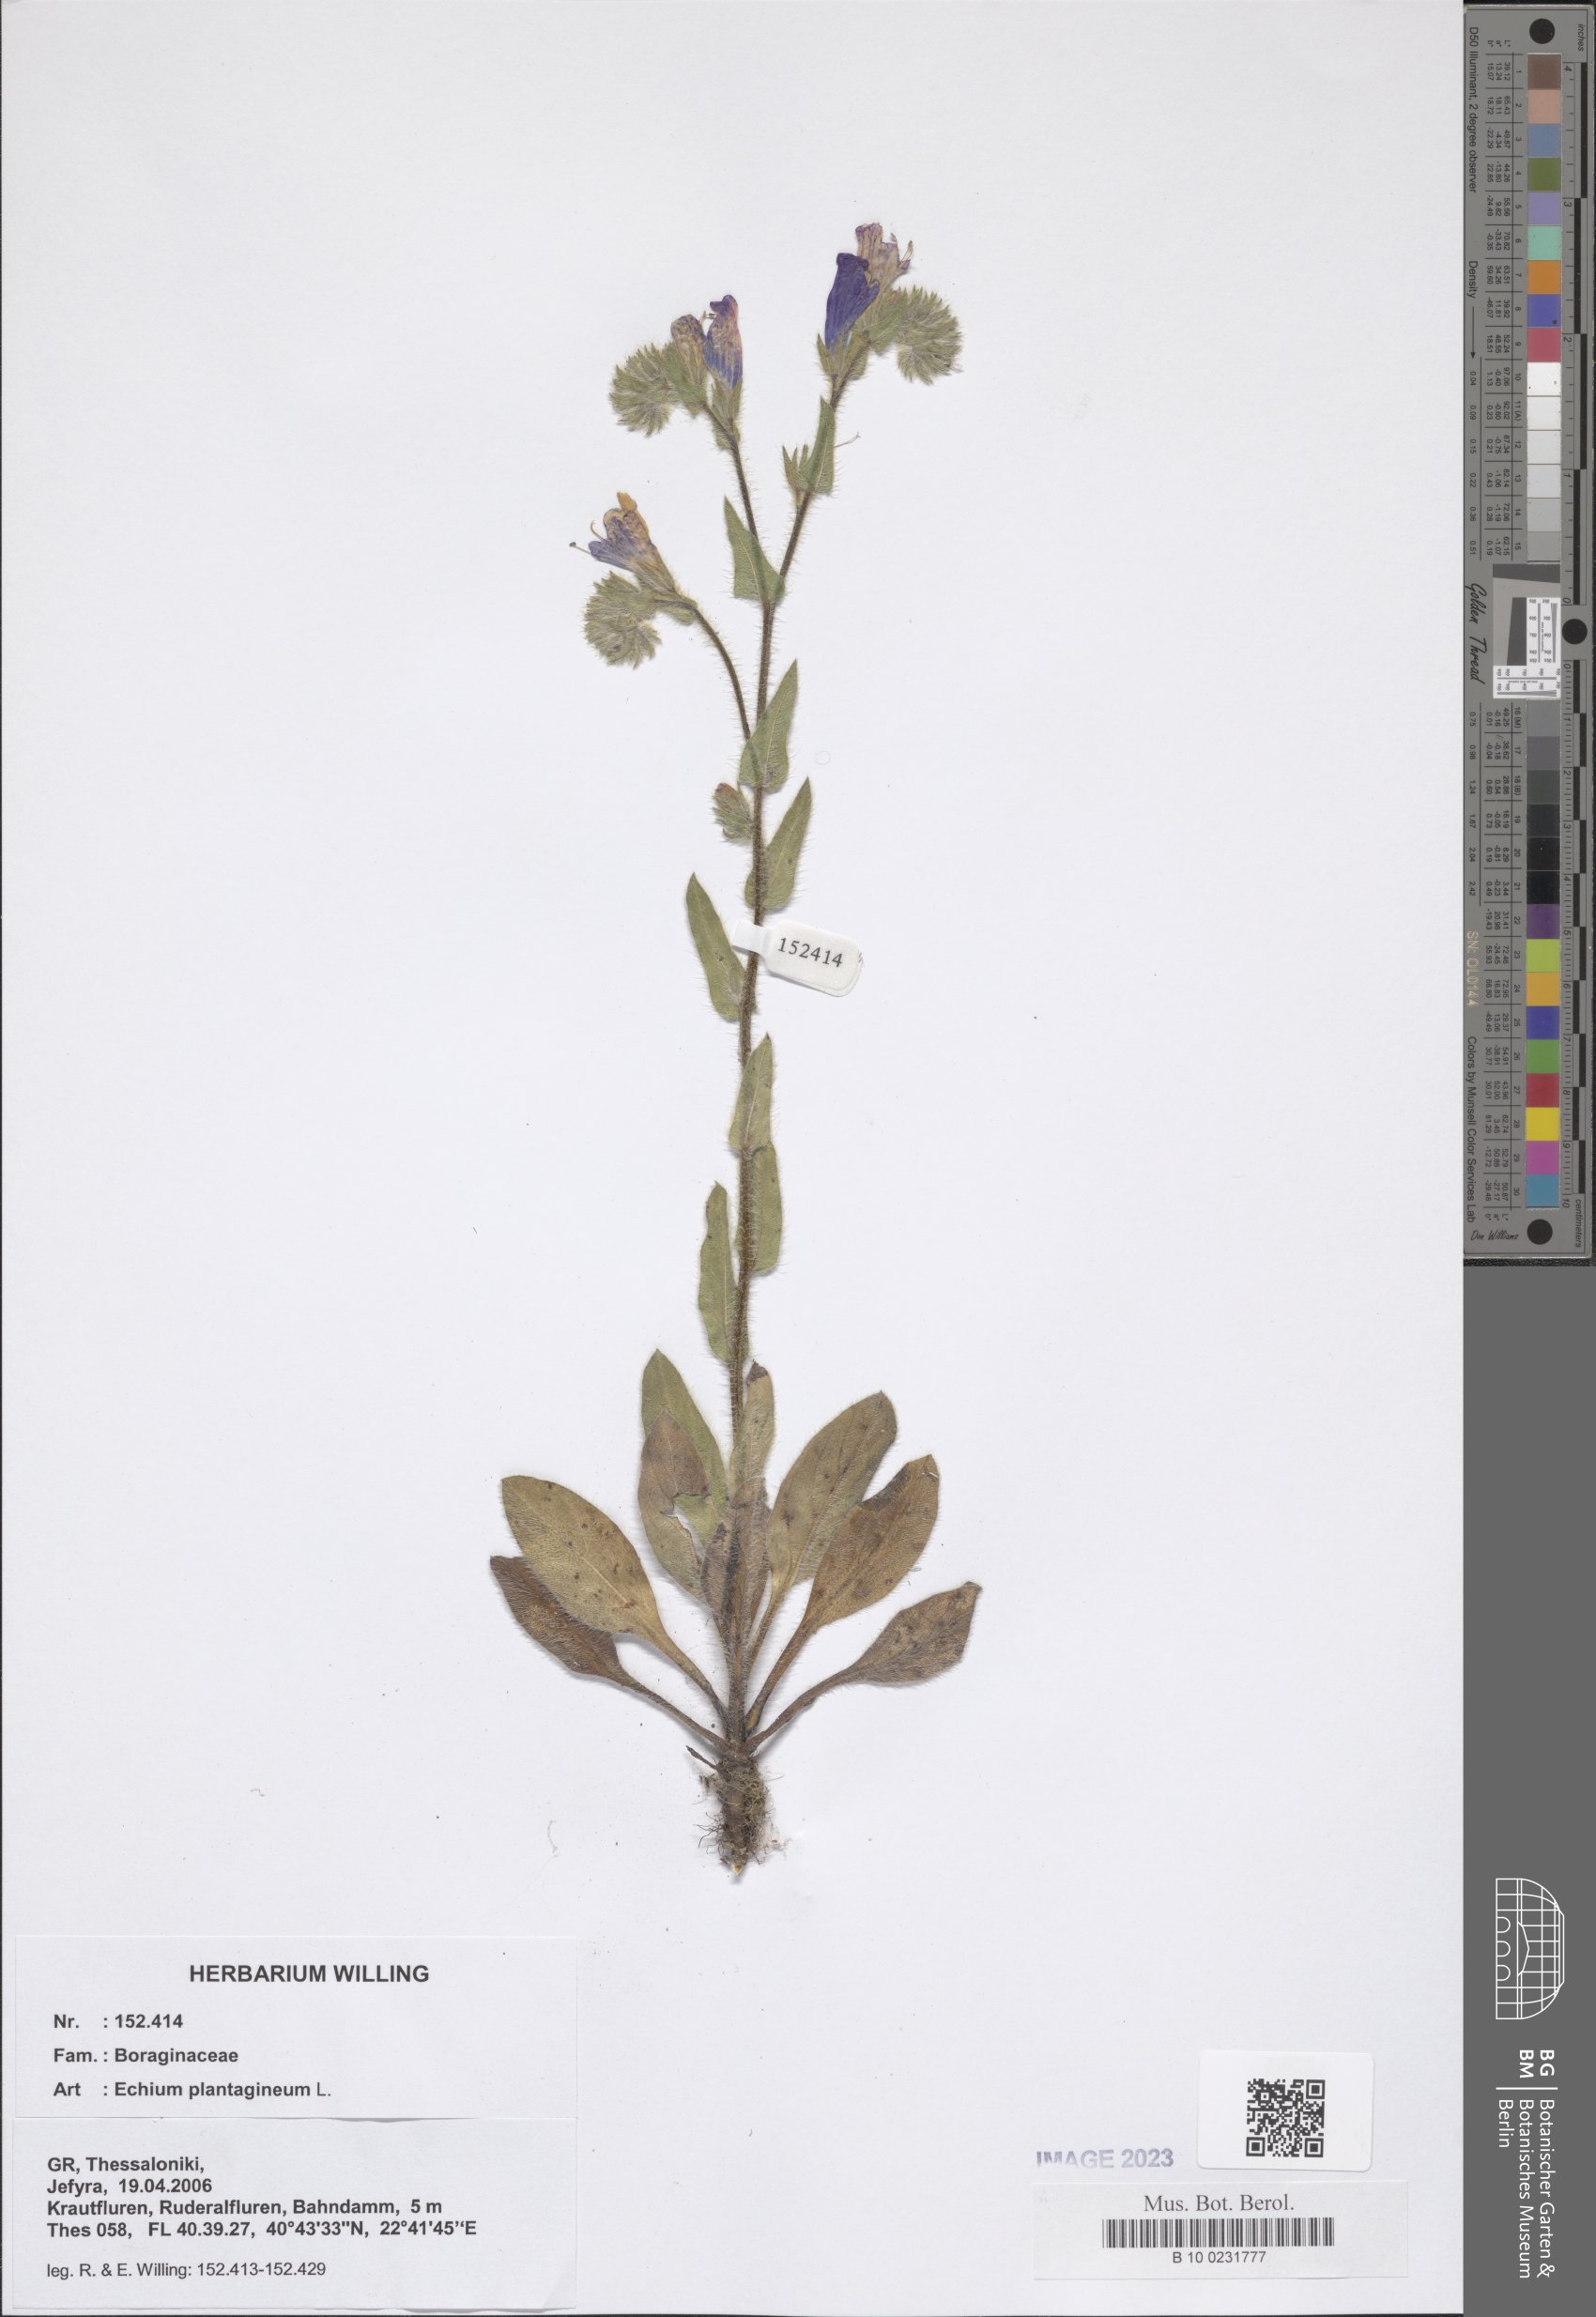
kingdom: Plantae
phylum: Tracheophyta
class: Magnoliopsida
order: Boraginales
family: Boraginaceae
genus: Echium
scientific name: Echium plantagineum
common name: Purple viper's-bugloss
